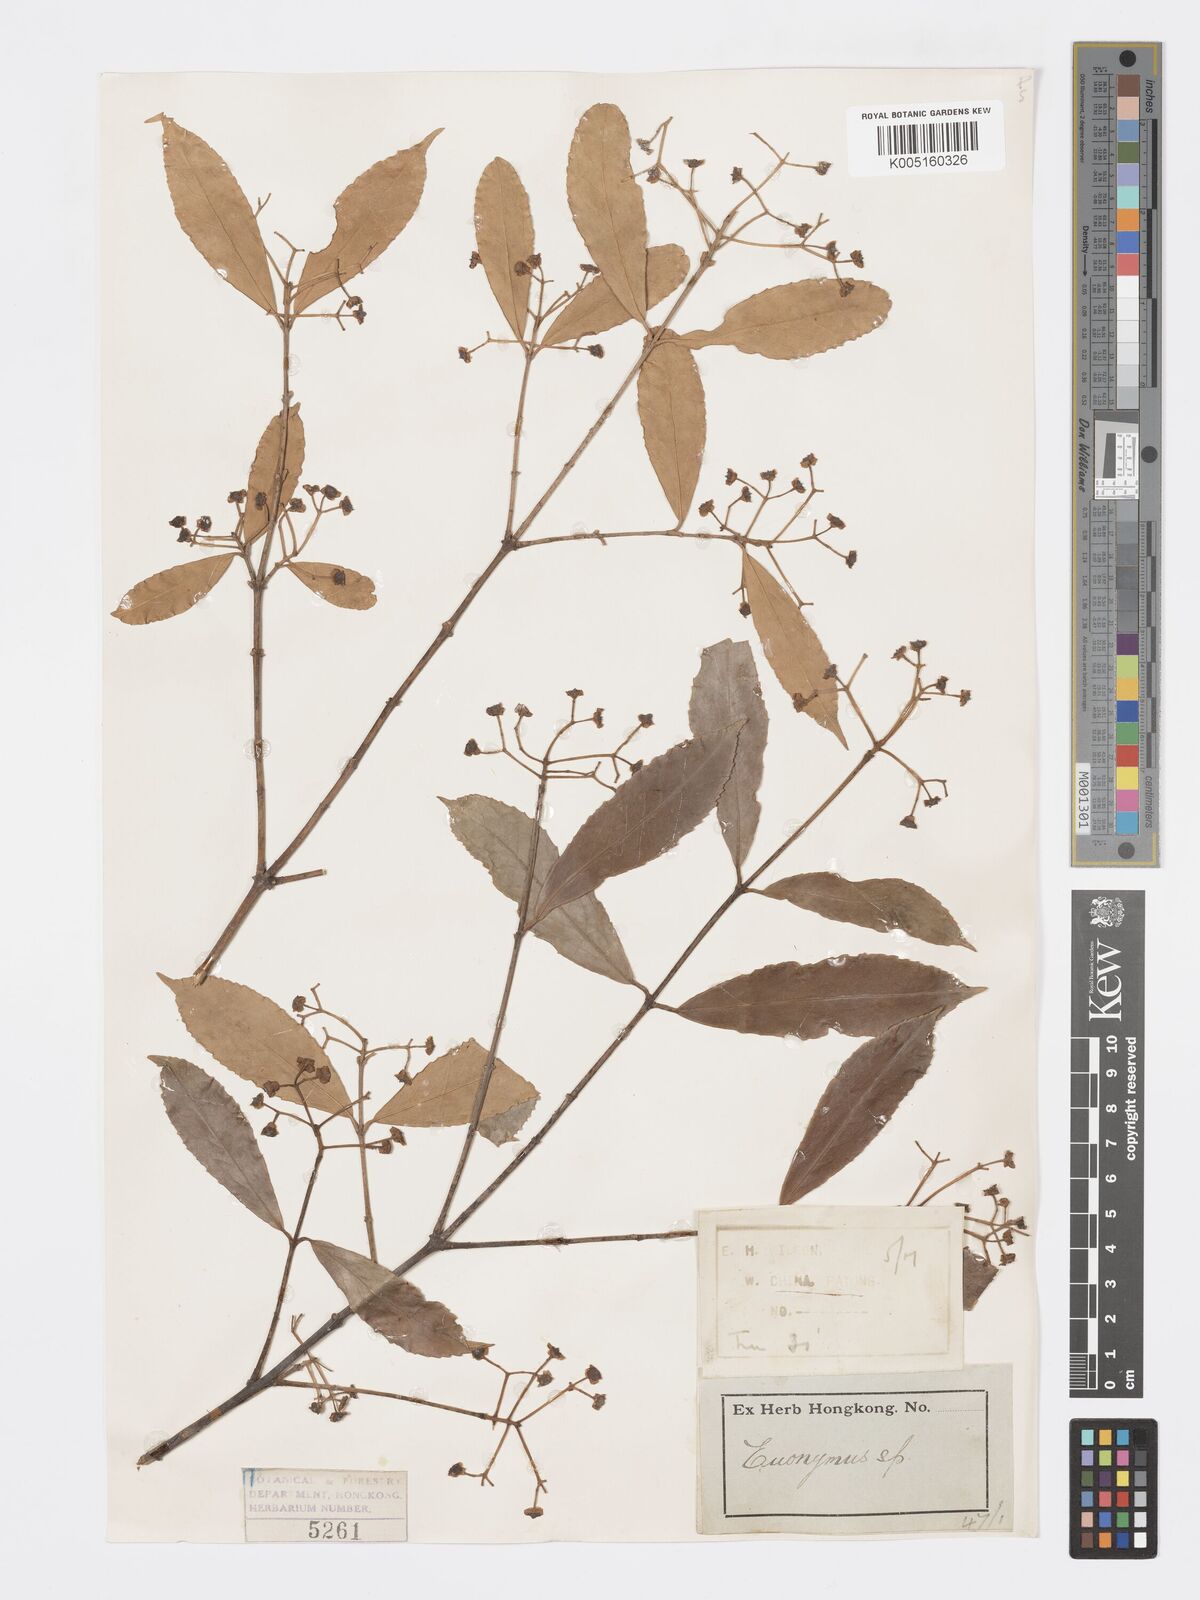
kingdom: Plantae
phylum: Tracheophyta
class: Magnoliopsida
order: Celastrales
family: Celastraceae
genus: Euonymus
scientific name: Euonymus
